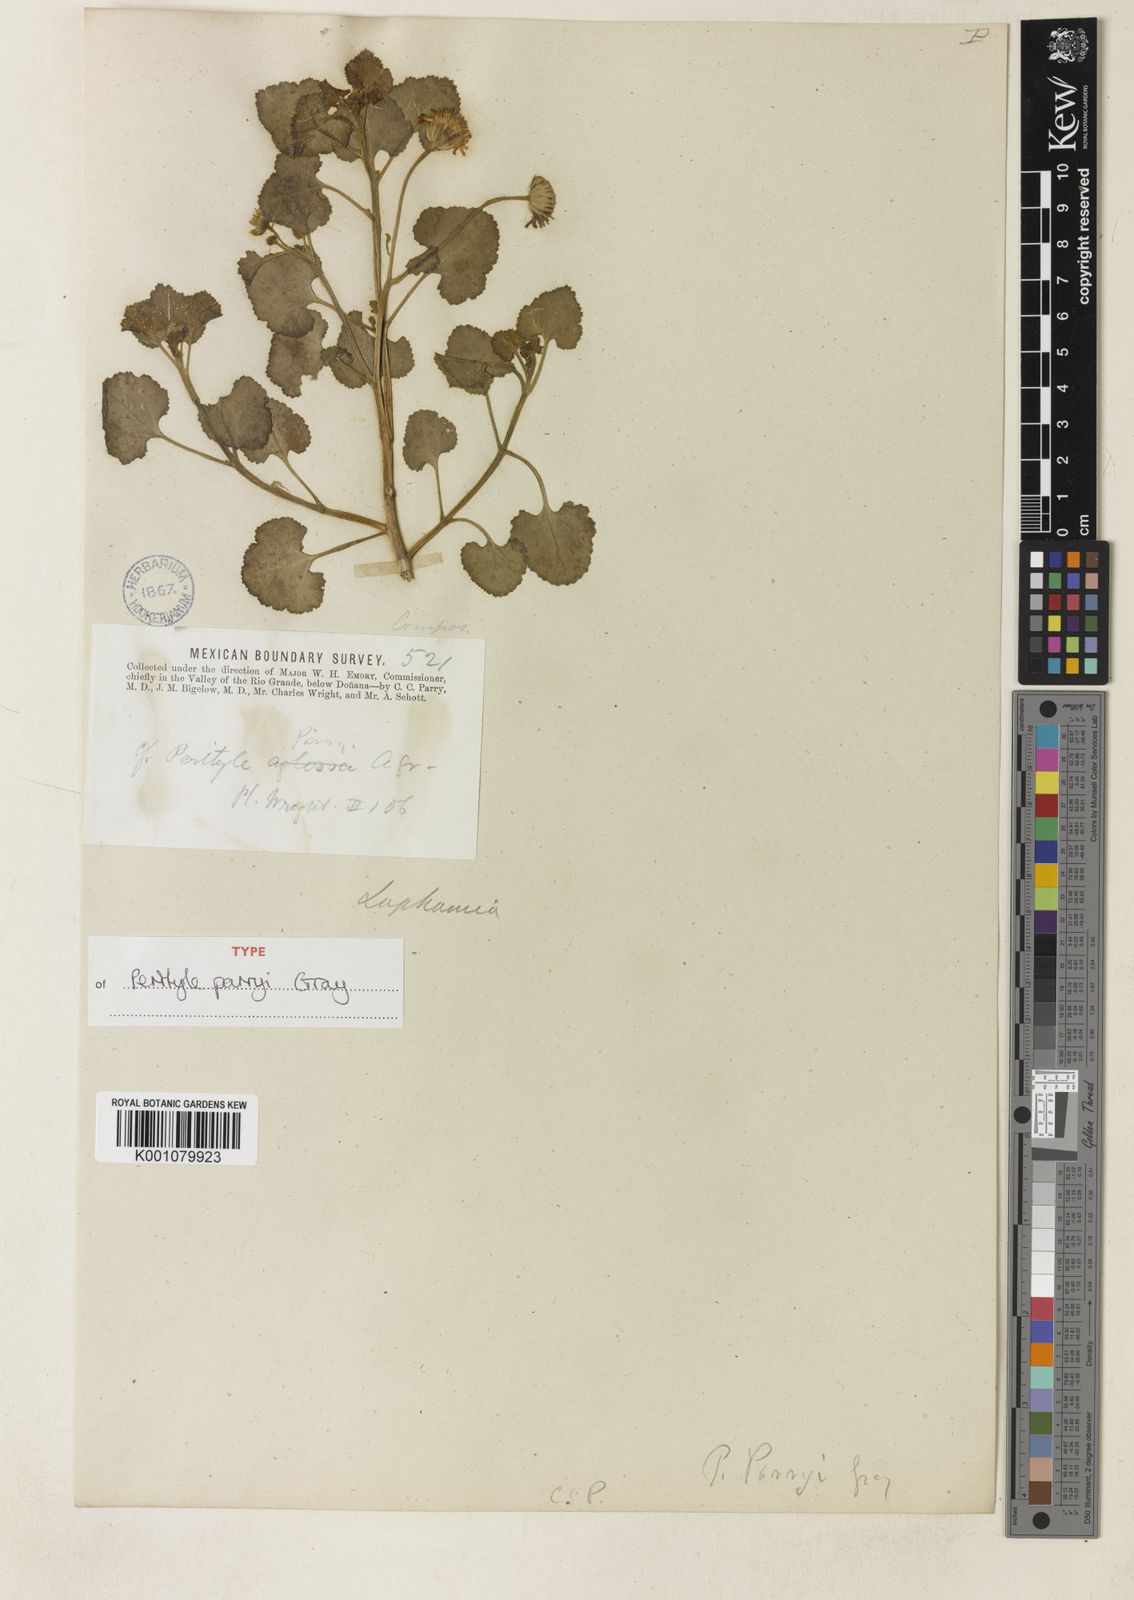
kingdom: Plantae
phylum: Tracheophyta
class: Magnoliopsida
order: Asterales
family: Asteraceae
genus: Laphamia
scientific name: Laphamia parryi
